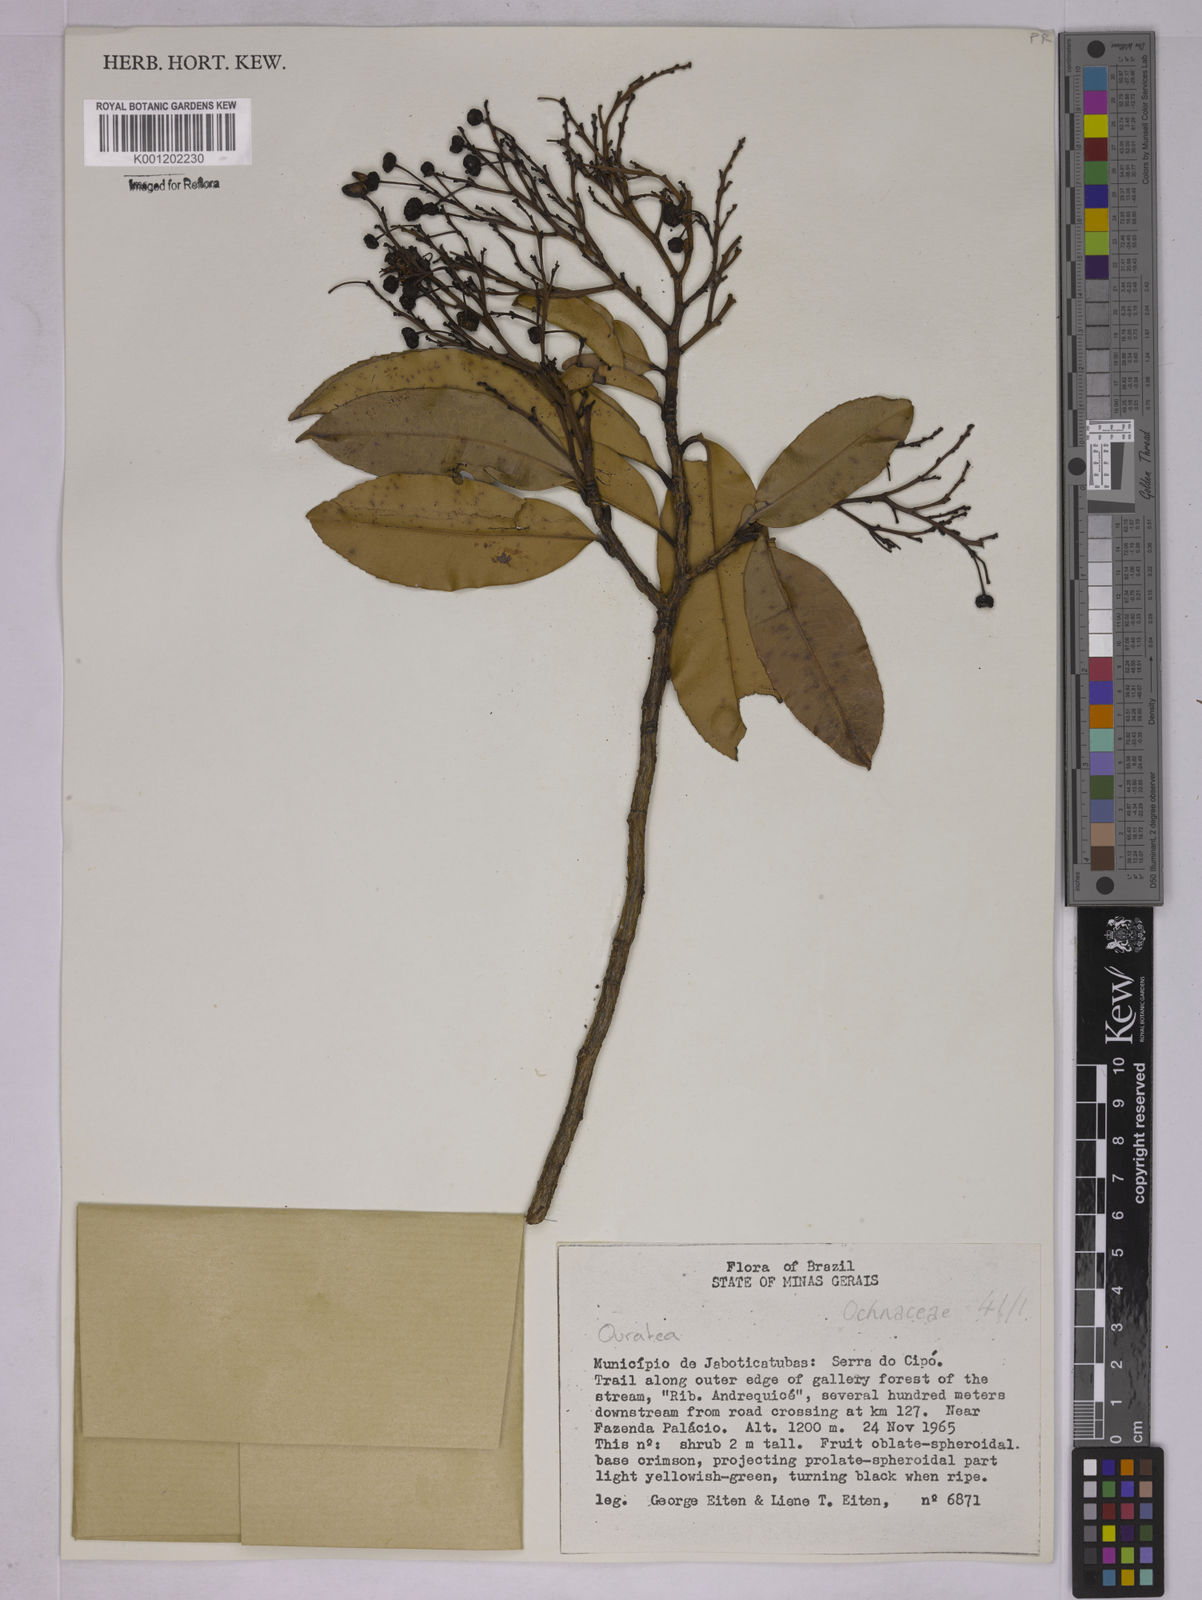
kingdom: Plantae
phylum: Tracheophyta
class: Magnoliopsida
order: Malpighiales
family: Ochnaceae
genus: Ouratea
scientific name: Ouratea
